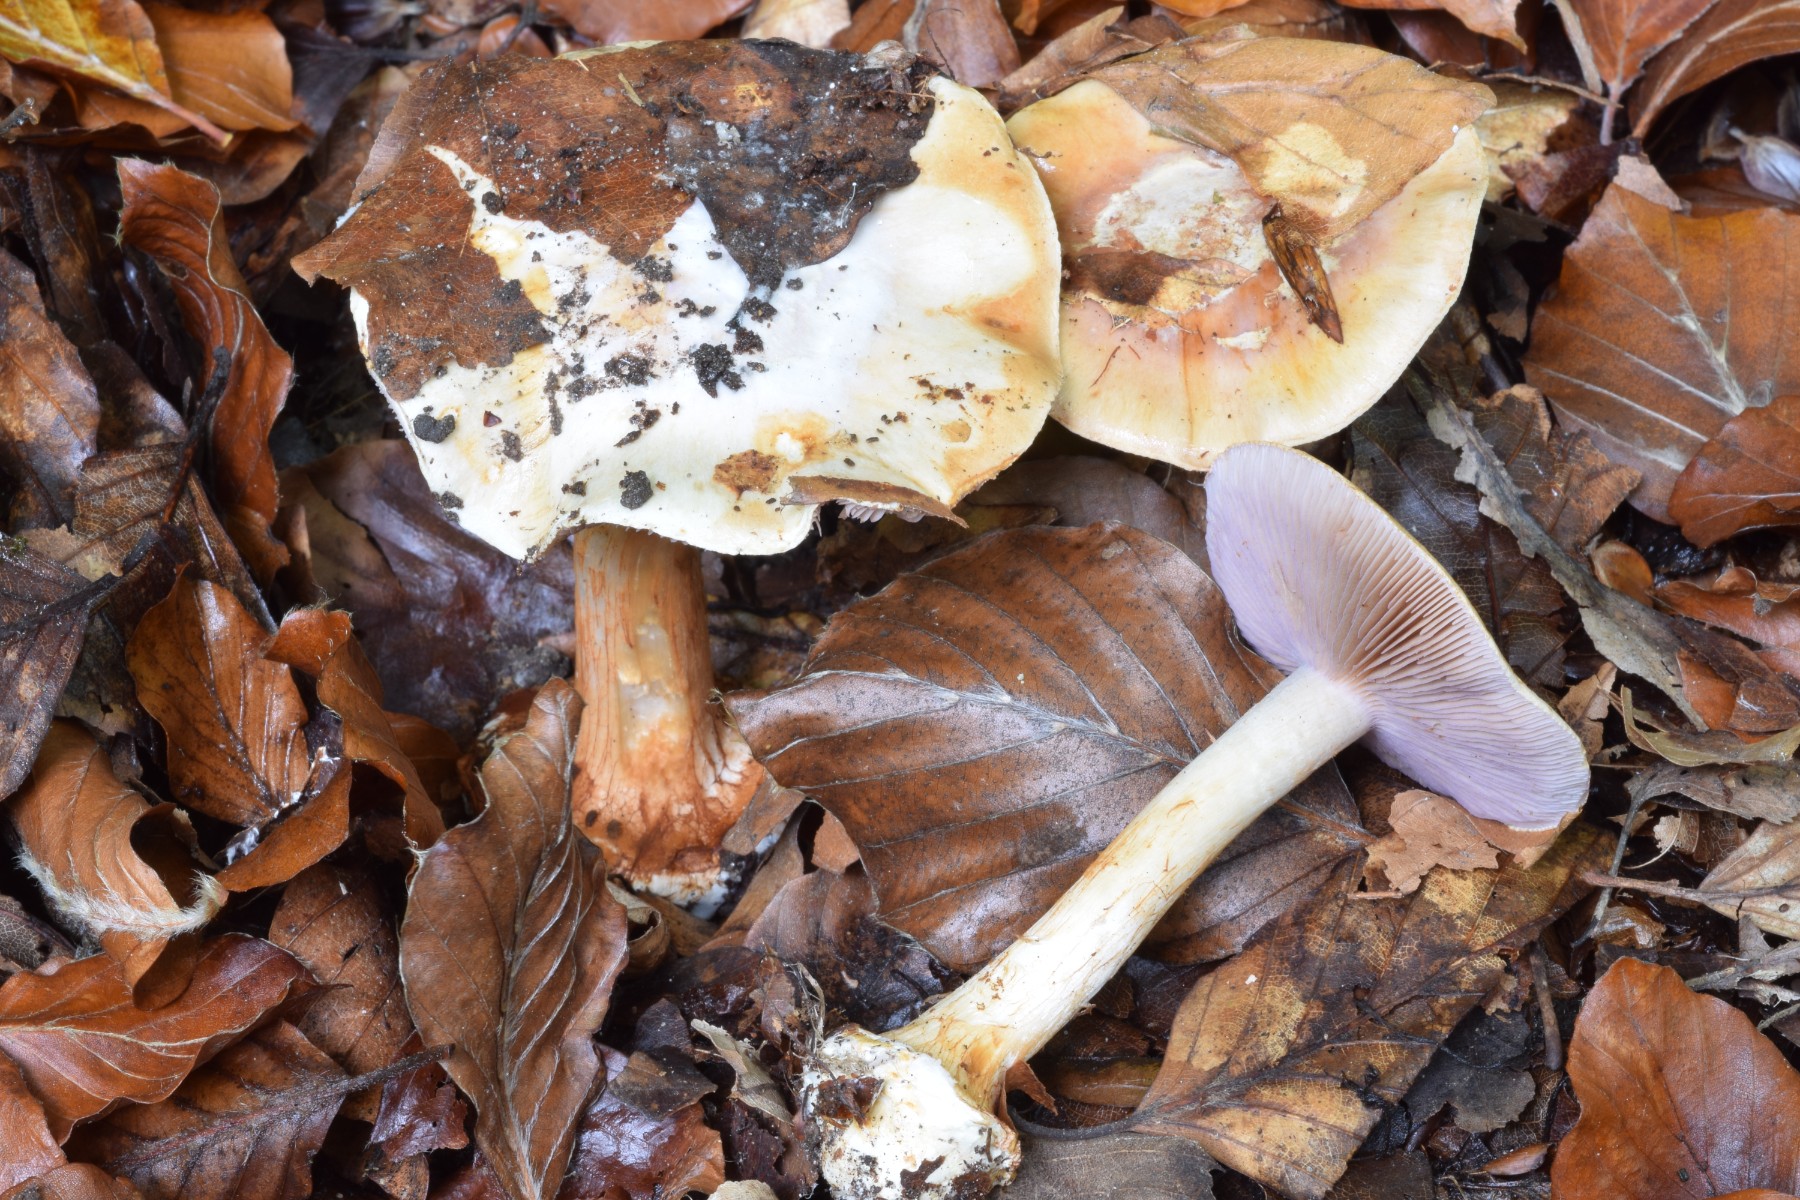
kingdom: Fungi
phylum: Basidiomycota
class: Agaricomycetes
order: Agaricales
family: Cortinariaceae
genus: Calonarius
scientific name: Calonarius platypus
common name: platfodet slørhat
